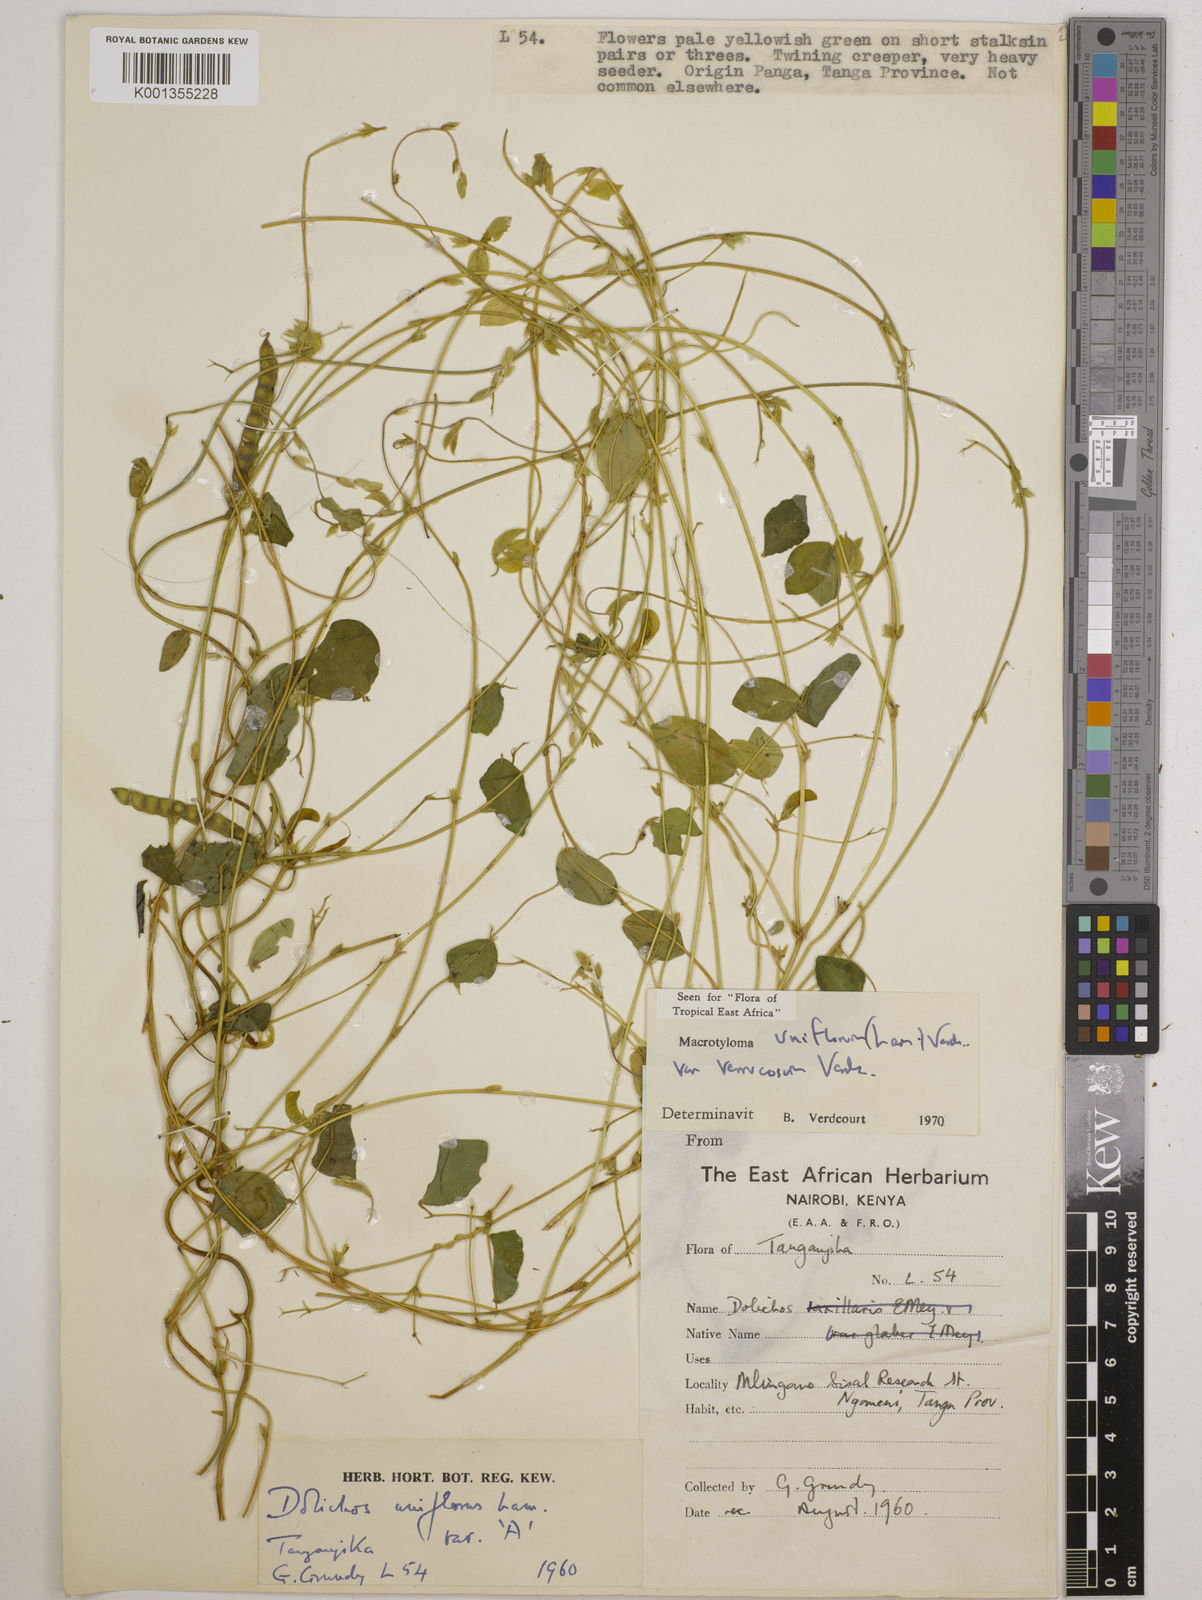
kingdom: Plantae
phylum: Tracheophyta
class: Magnoliopsida
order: Fabales
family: Fabaceae
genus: Macrotyloma
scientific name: Macrotyloma
